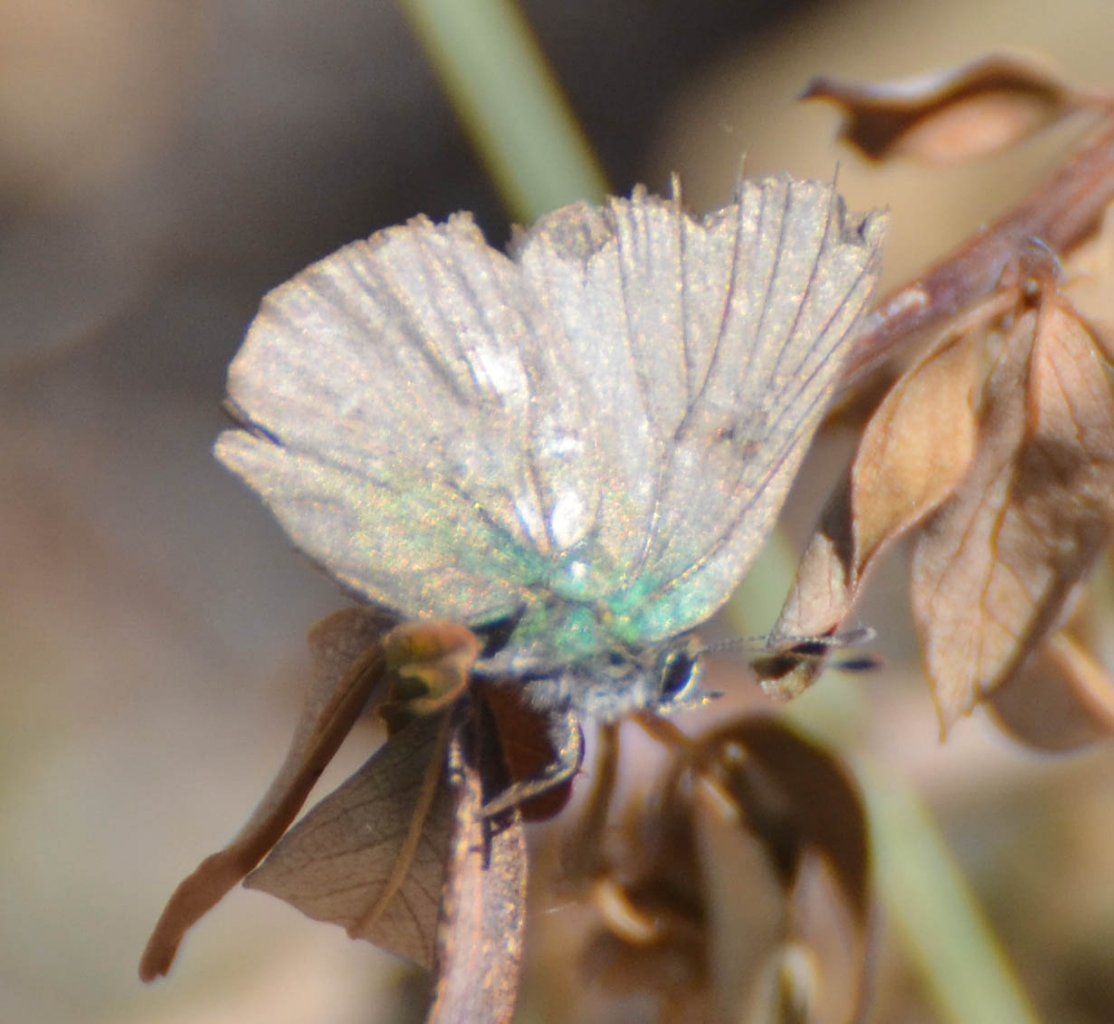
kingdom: Animalia
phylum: Arthropoda
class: Insecta
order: Lepidoptera
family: Lycaenidae
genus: Callophrys
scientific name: Callophrys dumetorum
